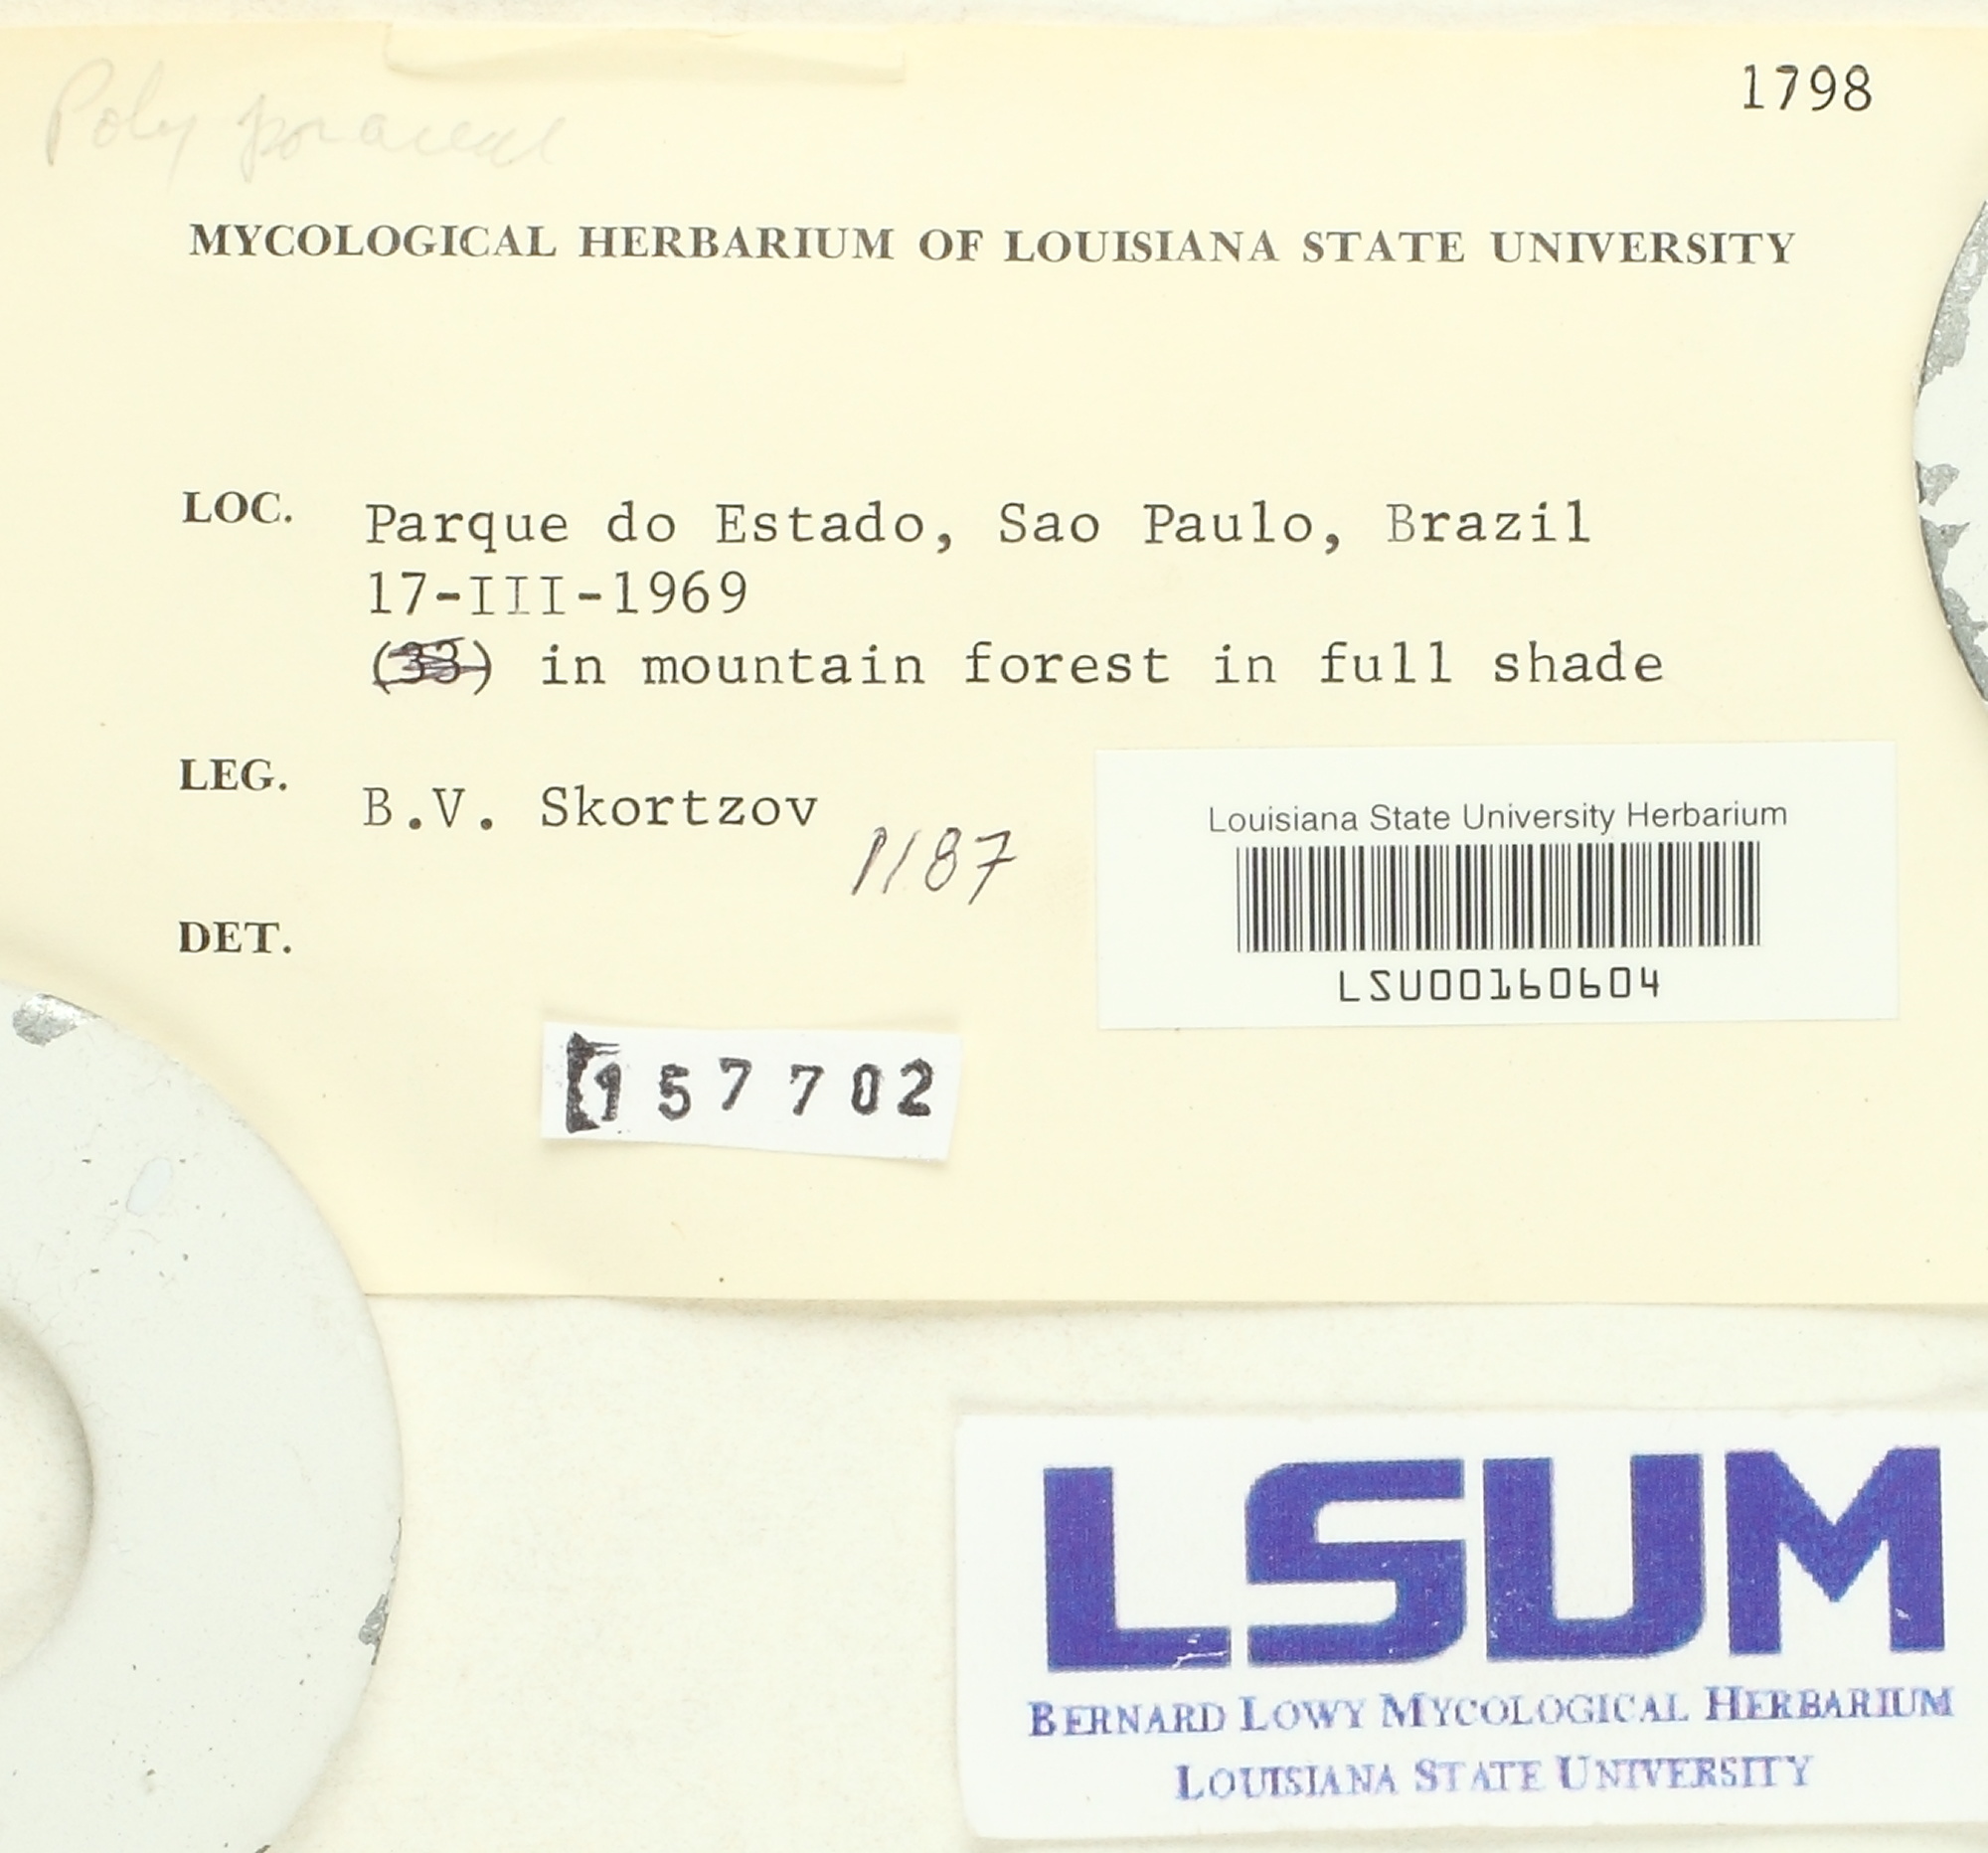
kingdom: Fungi
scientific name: Fungi
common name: Fungi
